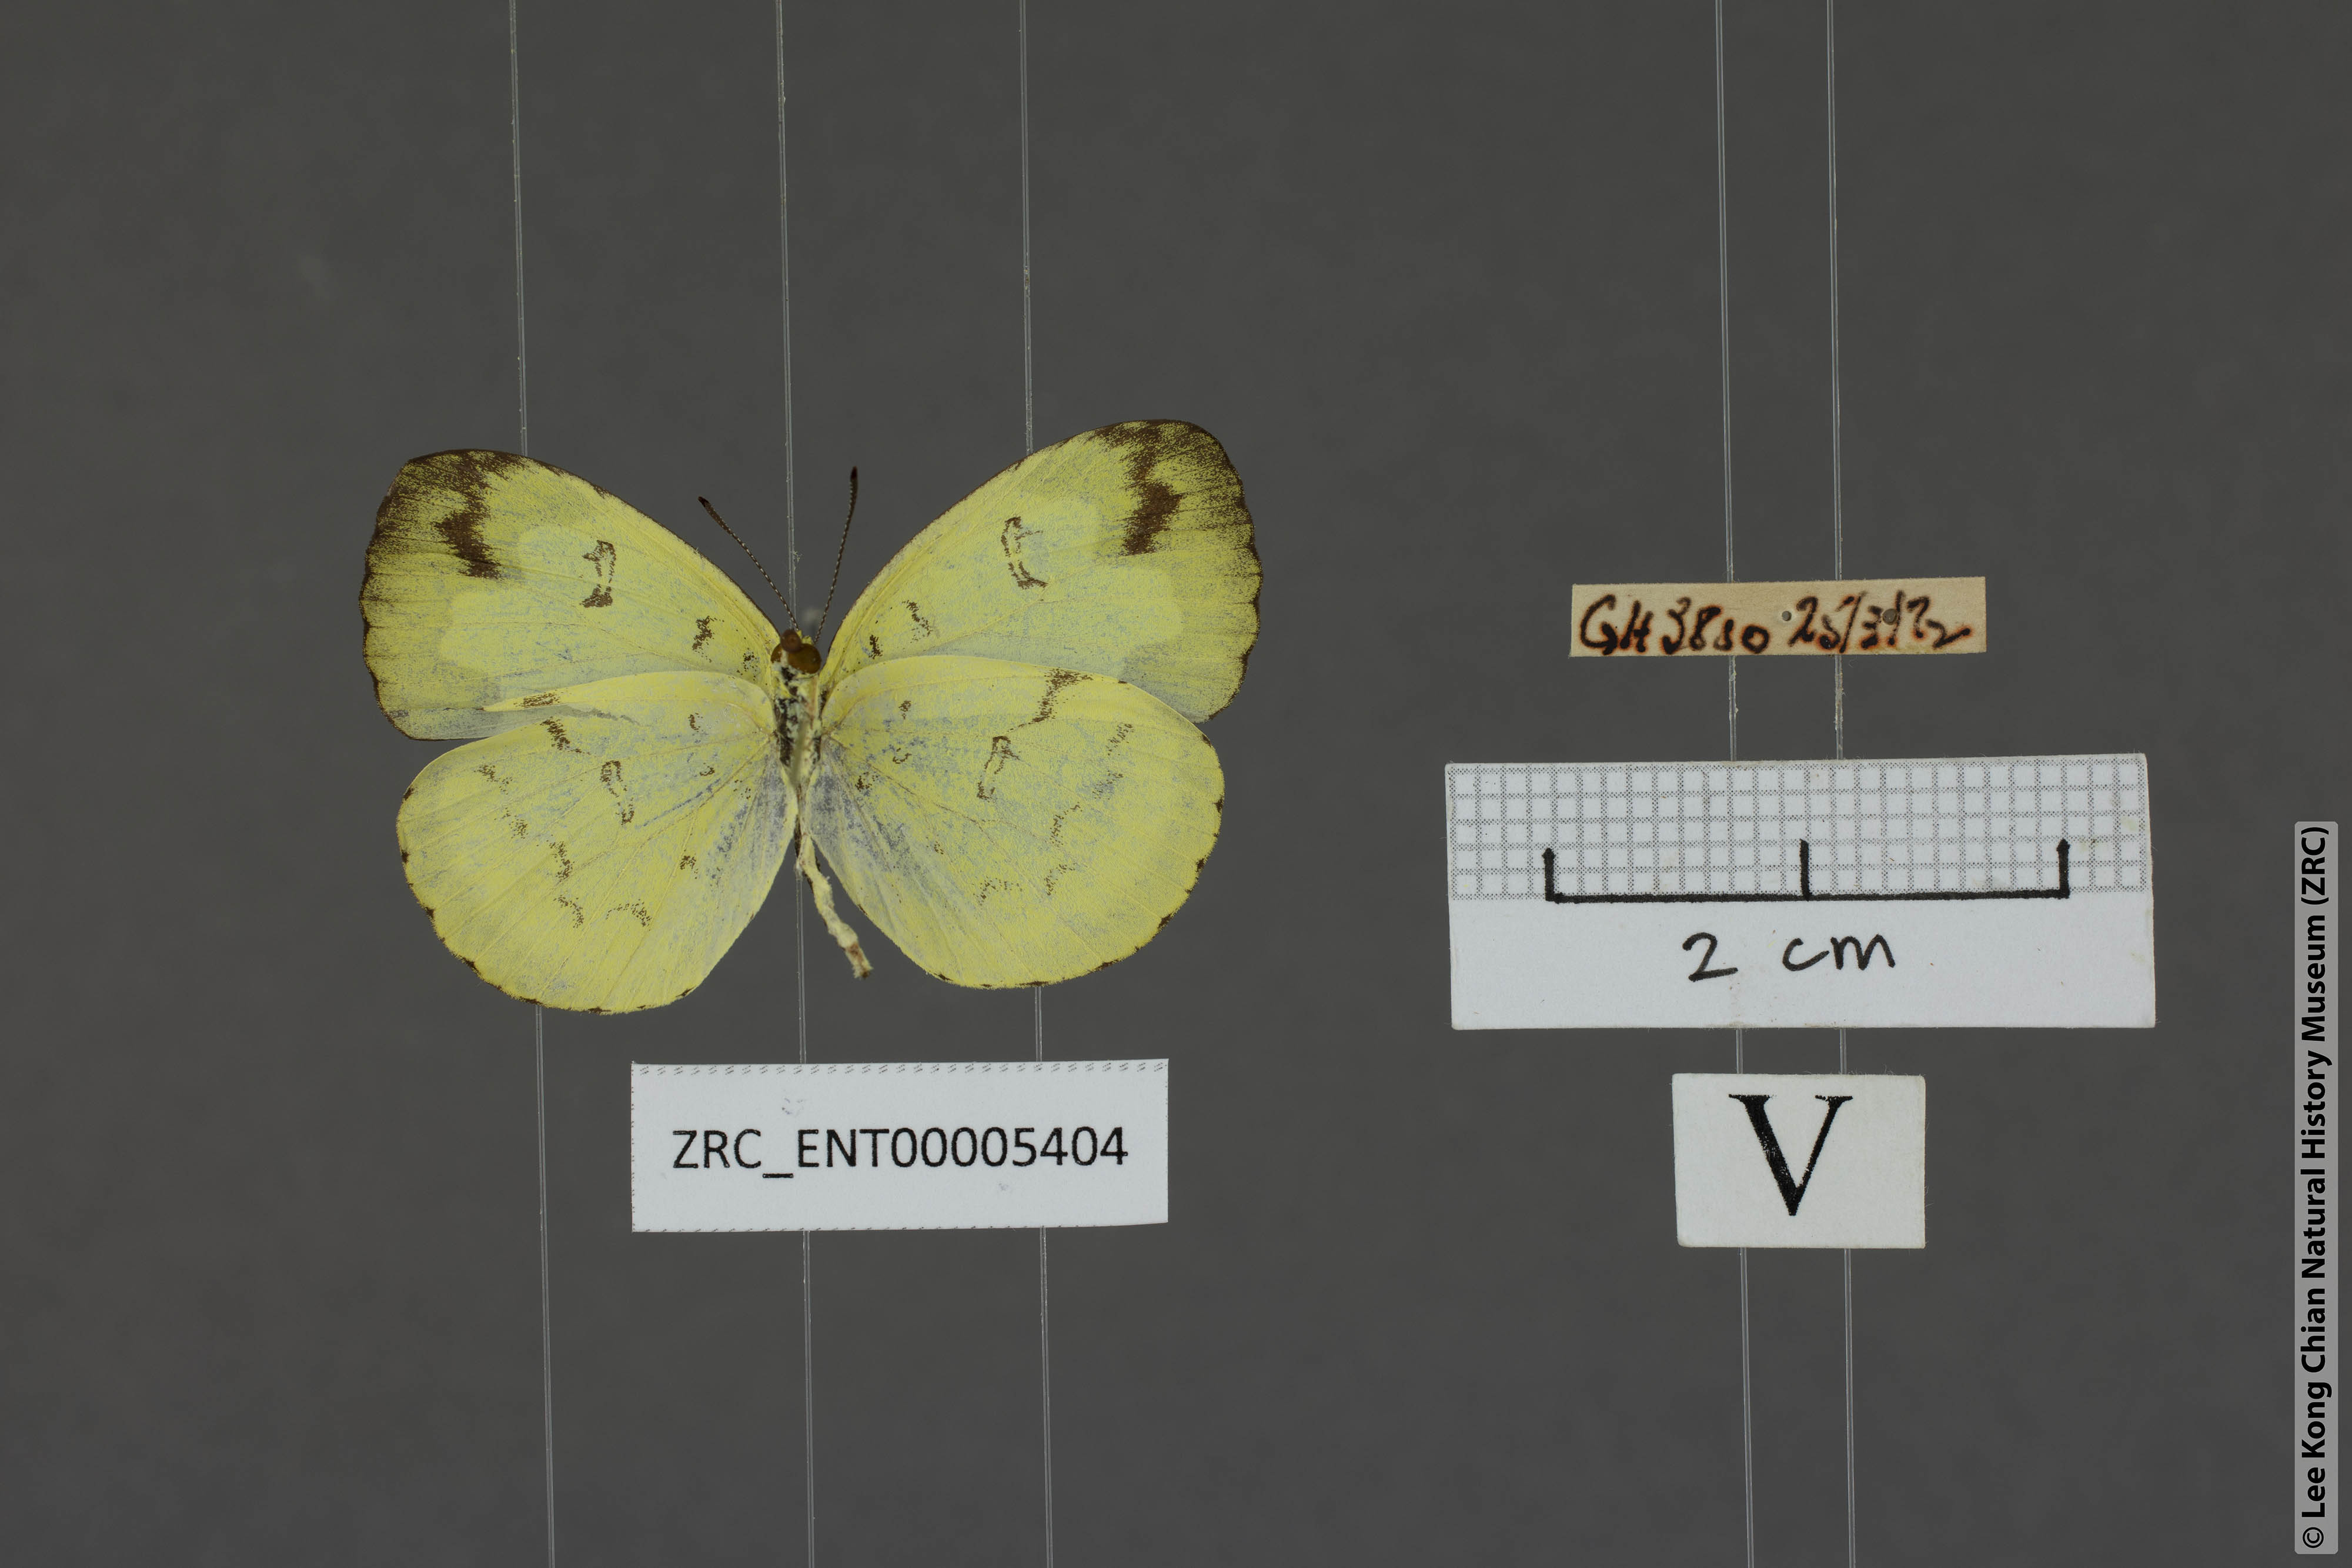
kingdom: Animalia
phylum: Arthropoda
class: Insecta
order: Lepidoptera
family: Pieridae
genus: Eurema
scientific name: Eurema ada
